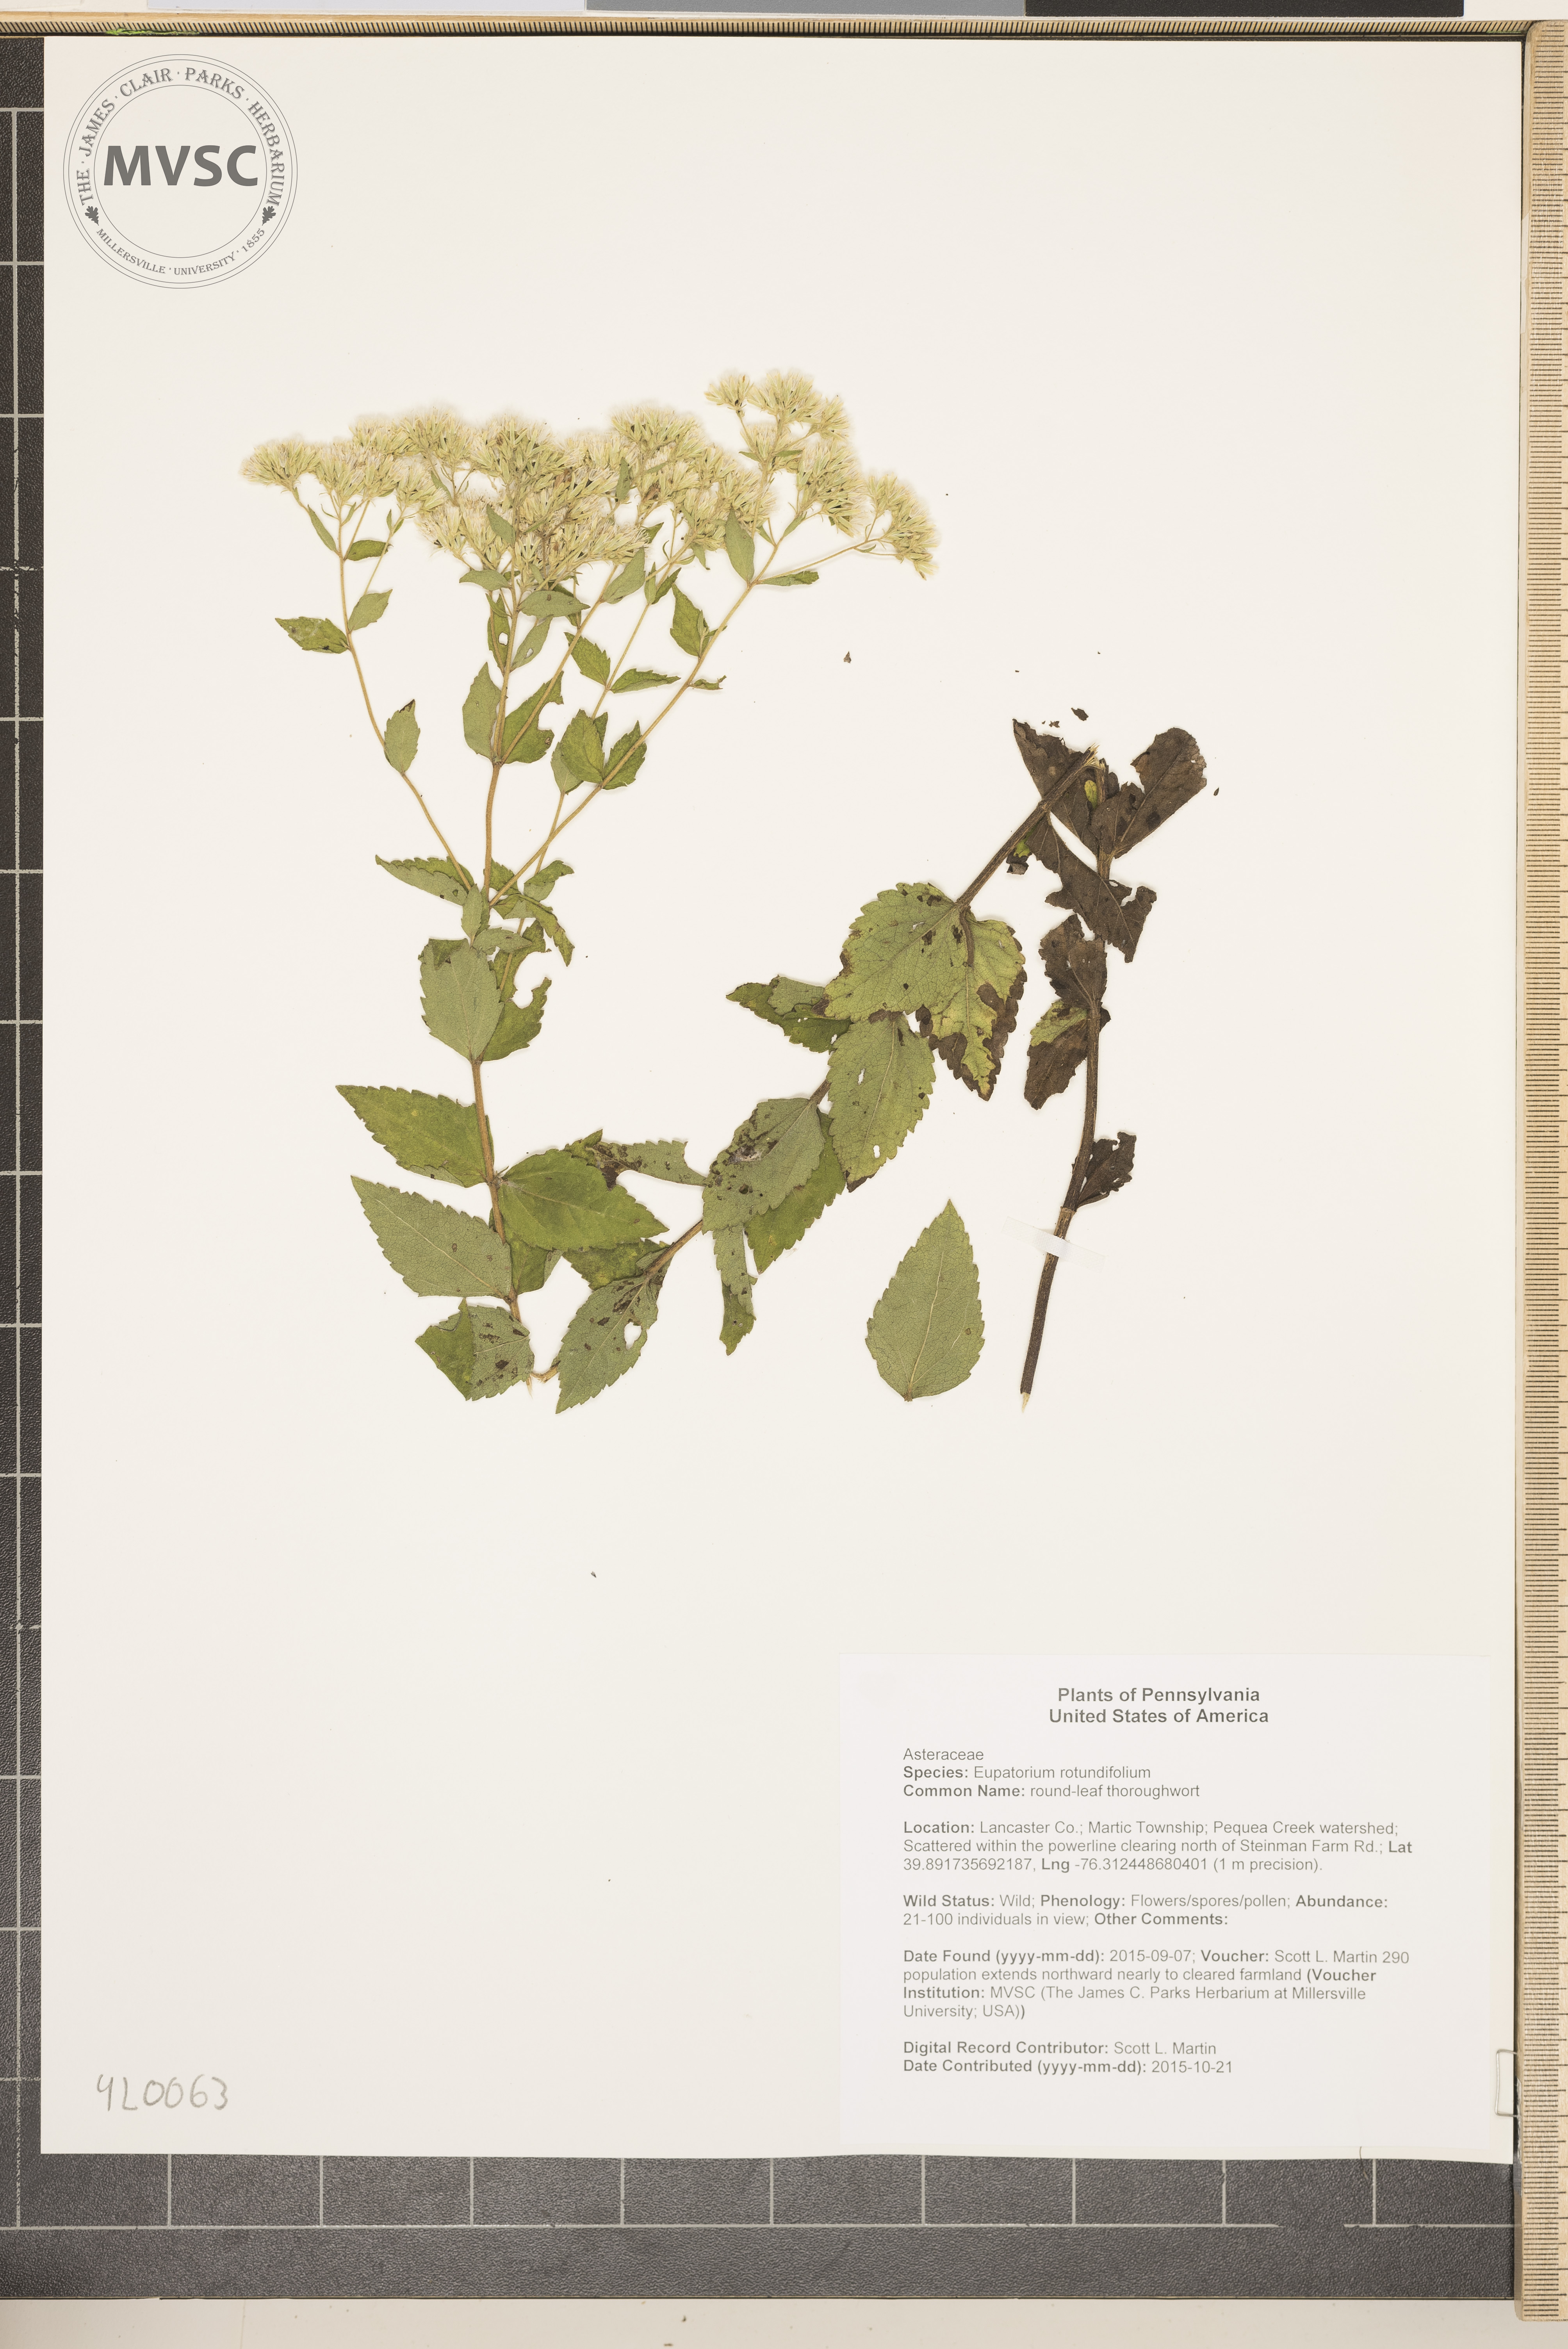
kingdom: Plantae
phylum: Tracheophyta
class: Magnoliopsida
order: Asterales
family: Asteraceae
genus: Eupatorium
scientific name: Eupatorium rotundifolium
